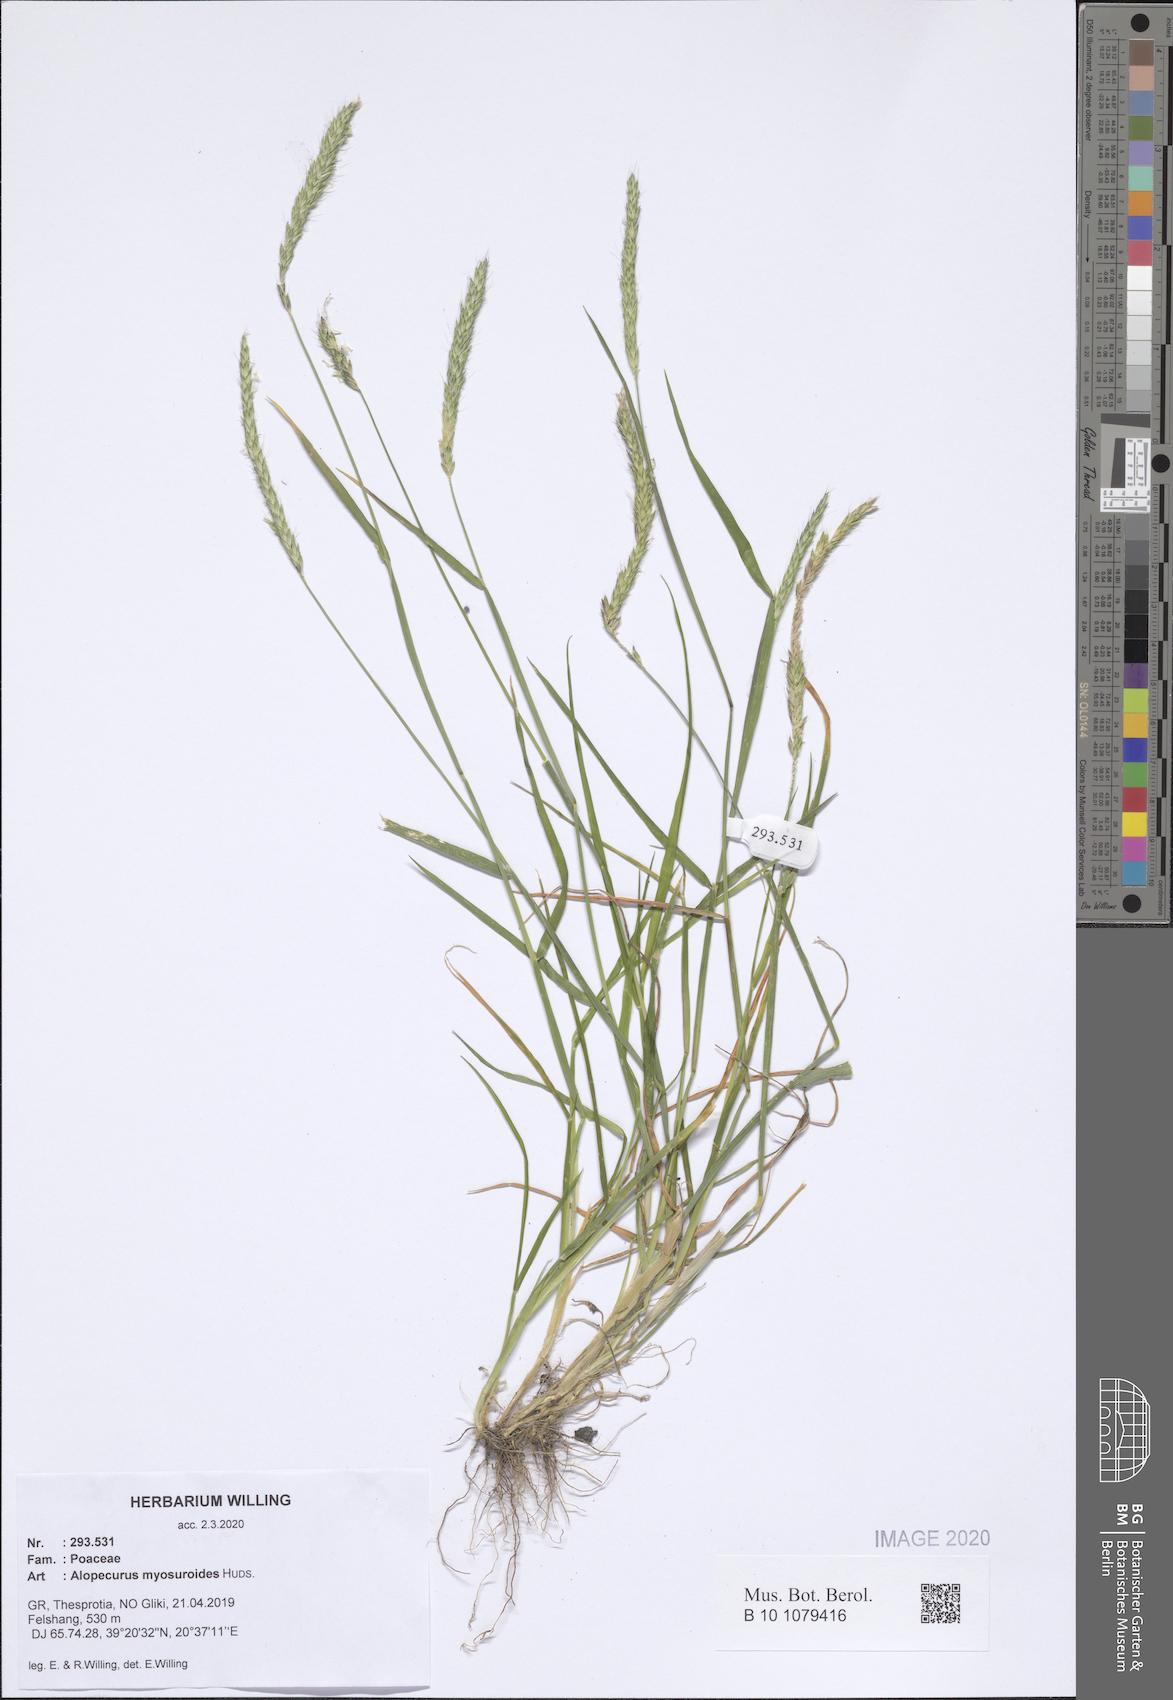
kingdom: Plantae
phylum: Tracheophyta
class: Liliopsida
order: Poales
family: Poaceae
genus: Alopecurus
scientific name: Alopecurus myosuroides
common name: Black-grass
